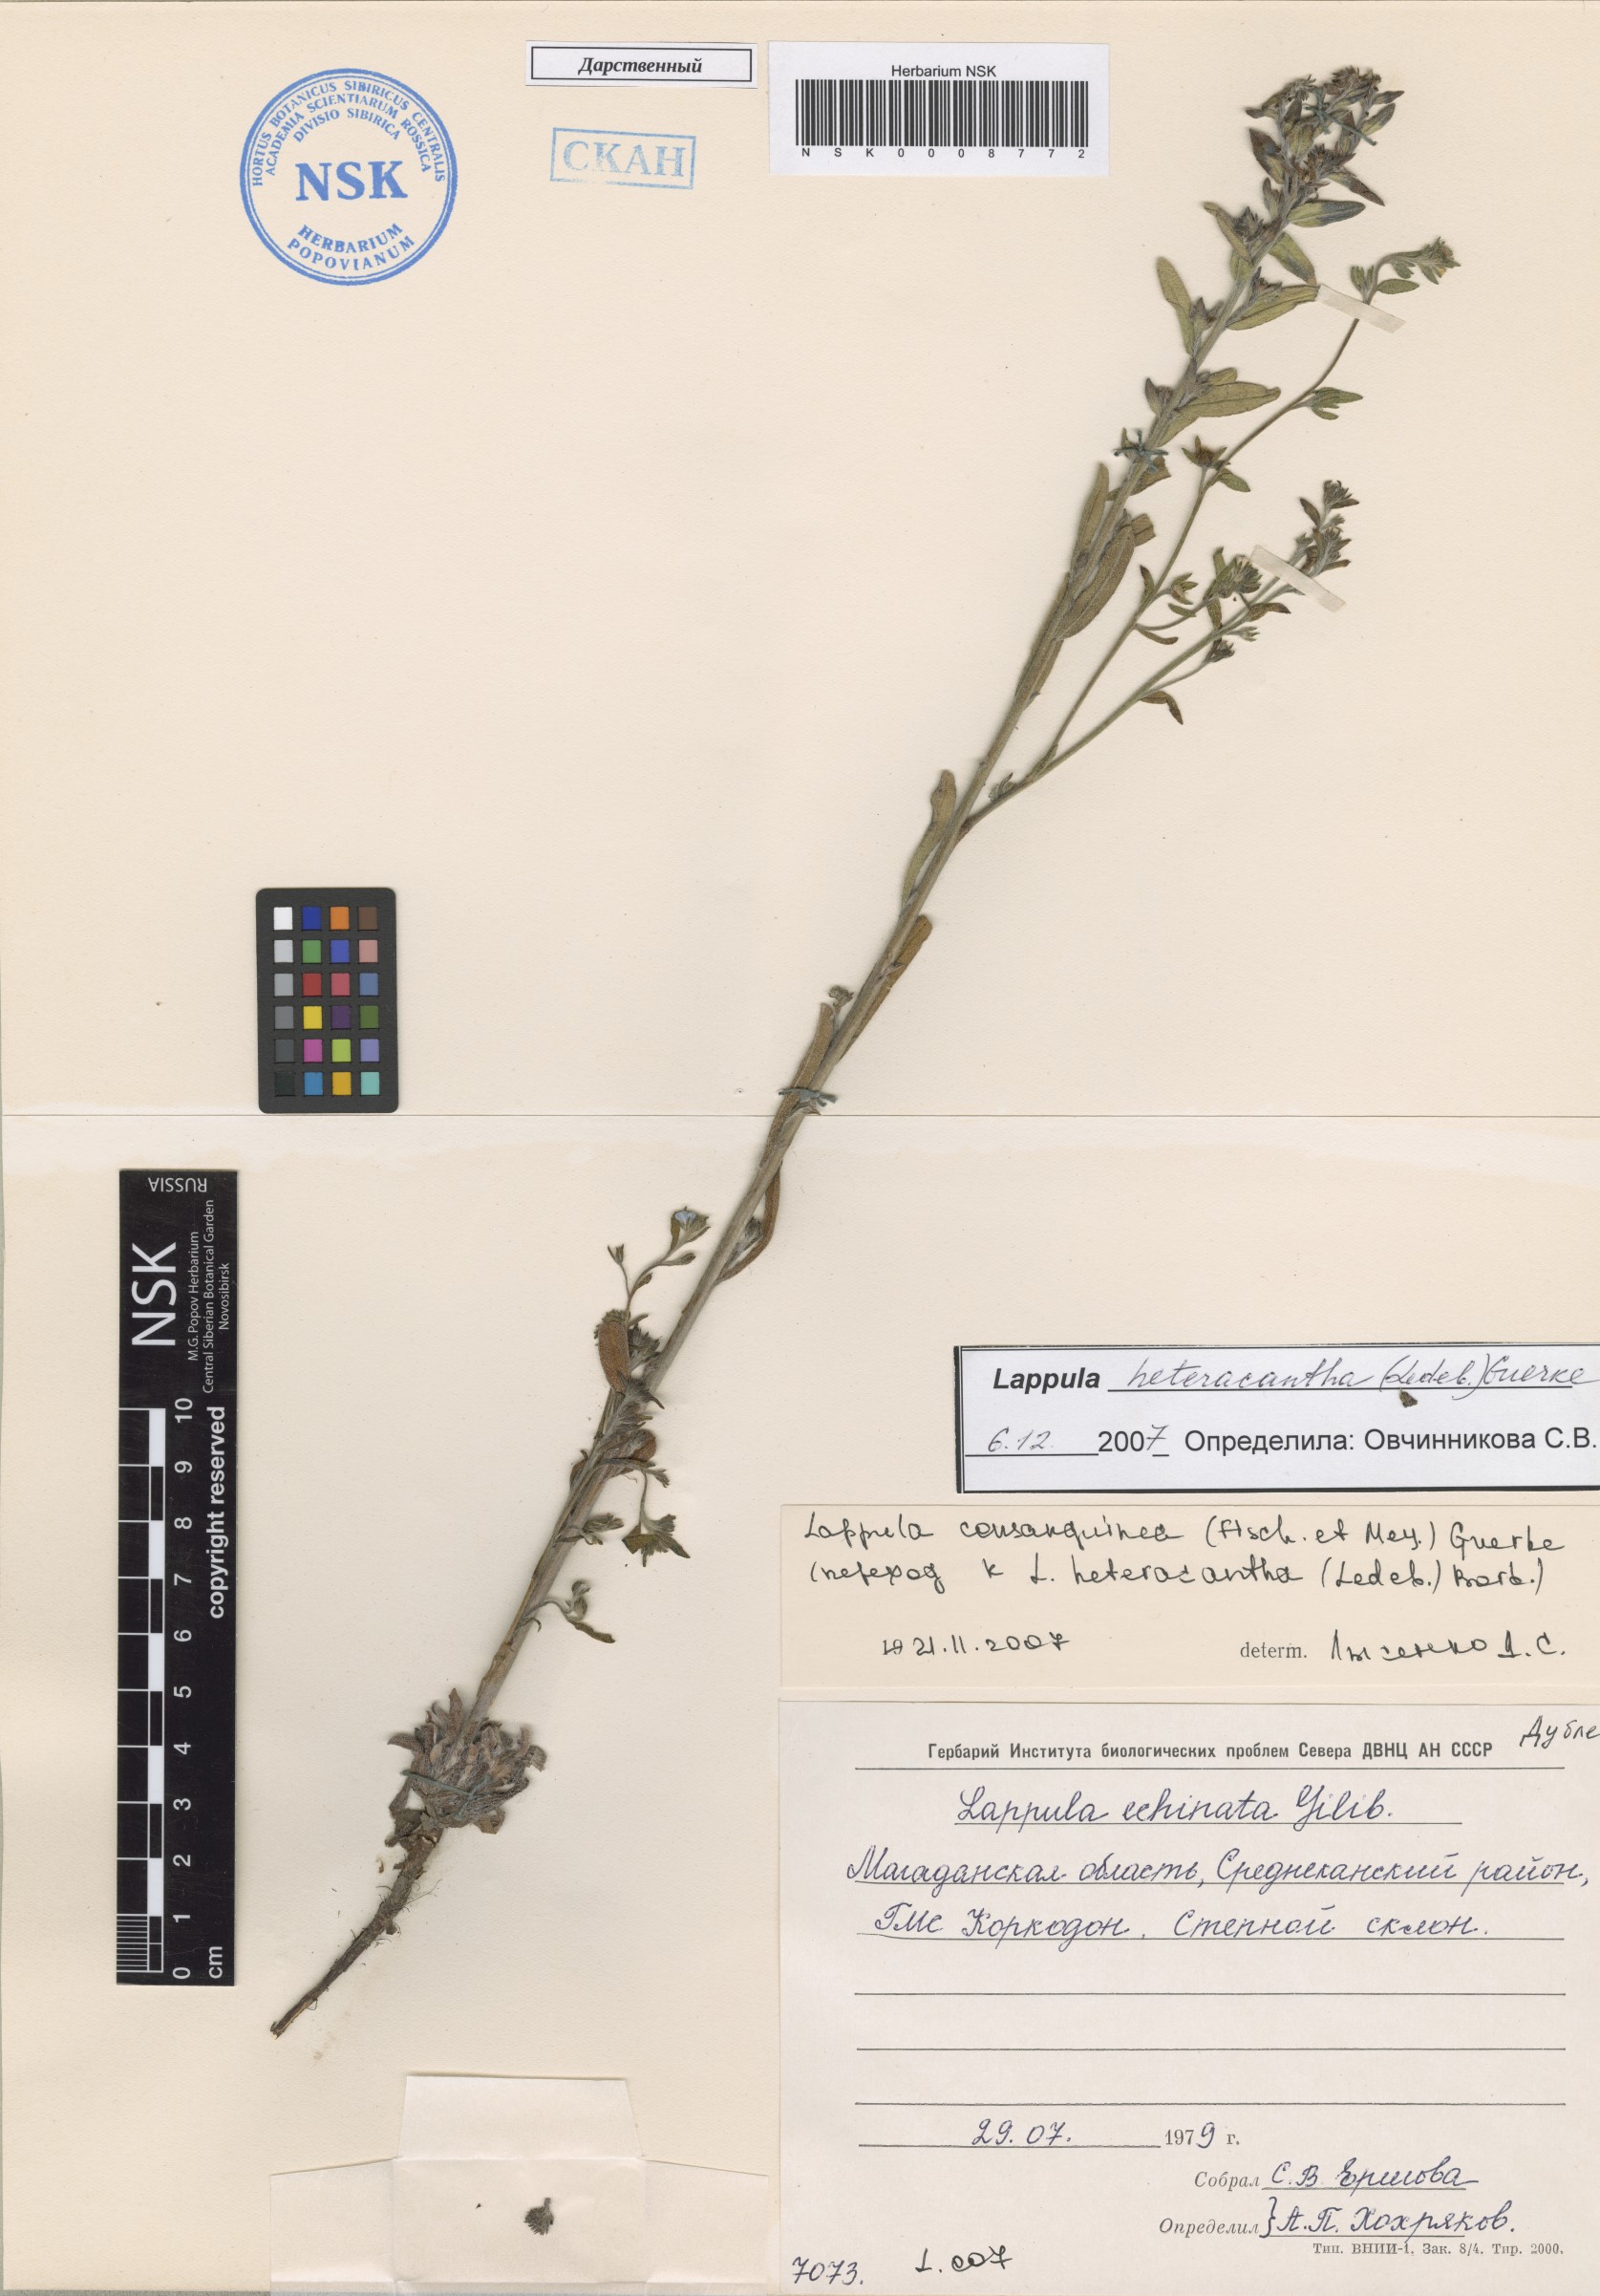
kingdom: Plantae
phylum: Tracheophyta
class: Magnoliopsida
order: Boraginales
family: Boraginaceae
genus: Lappula
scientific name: Lappula heteracantha
